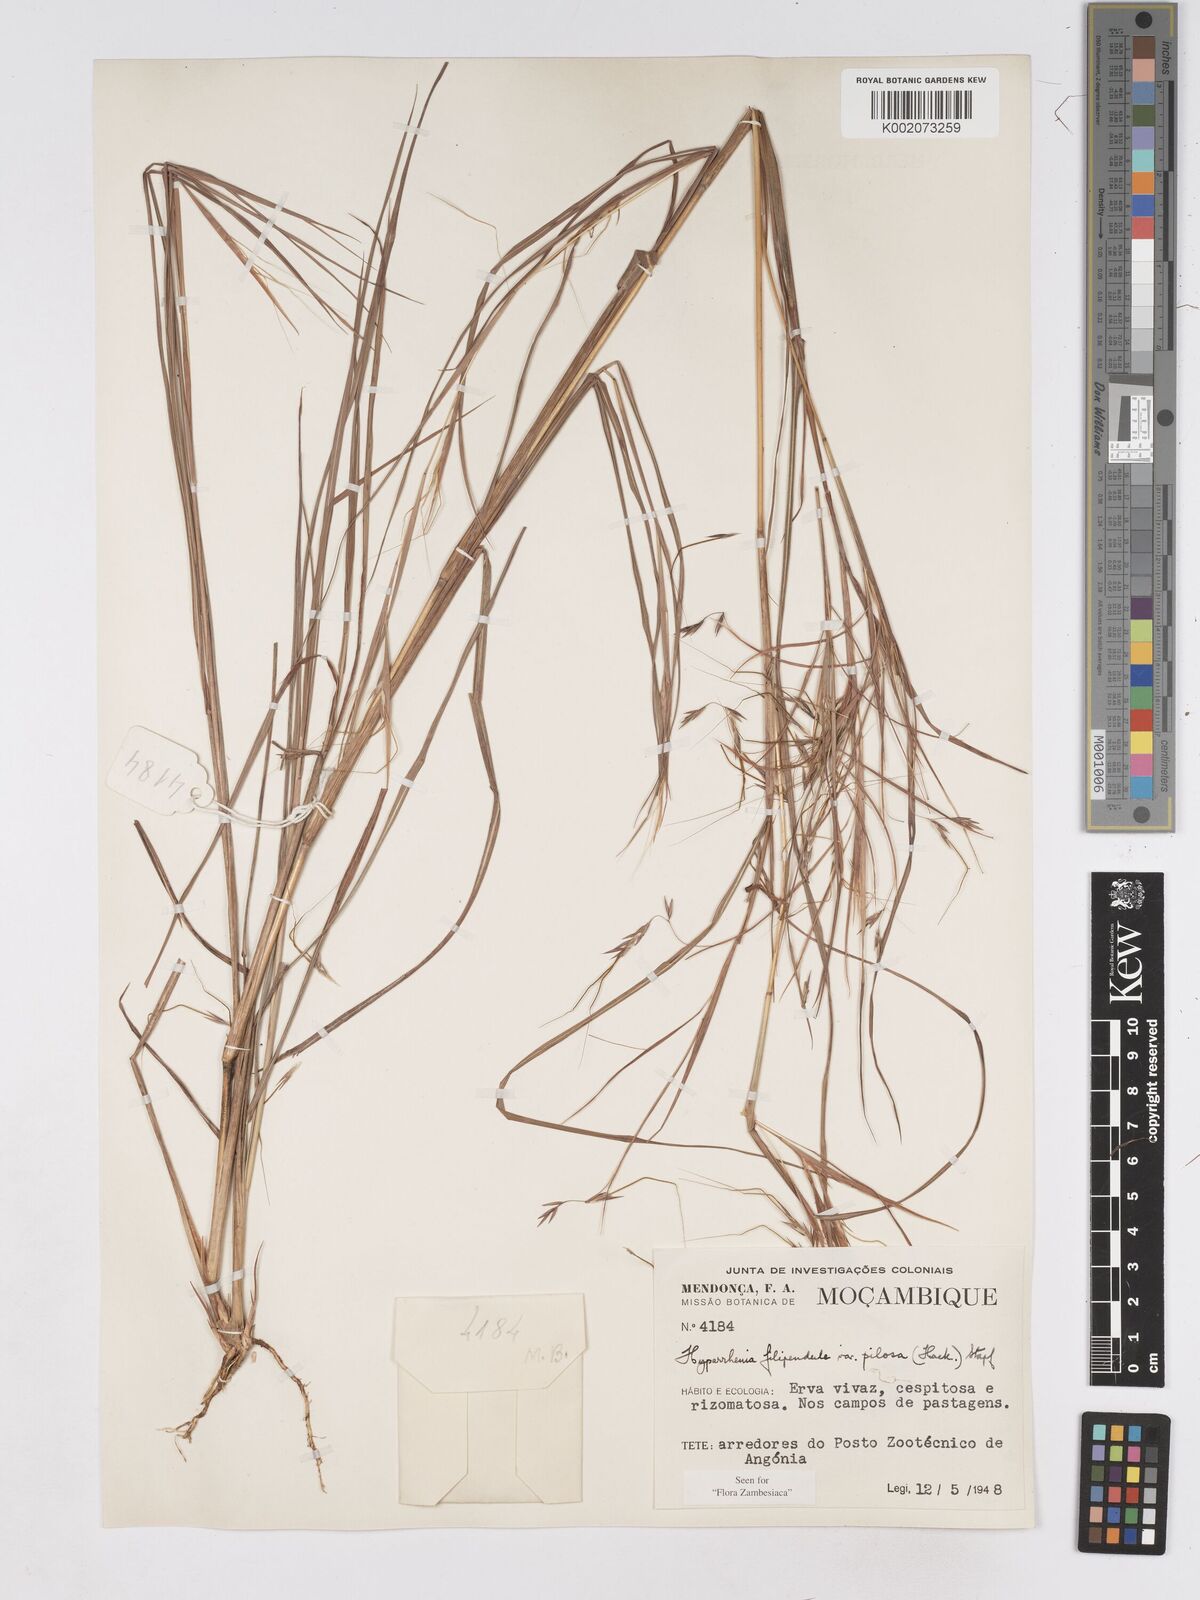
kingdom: Plantae
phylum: Tracheophyta
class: Liliopsida
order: Poales
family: Poaceae
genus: Hyparrhenia
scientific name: Hyparrhenia filipendula
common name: Tambookie grass
